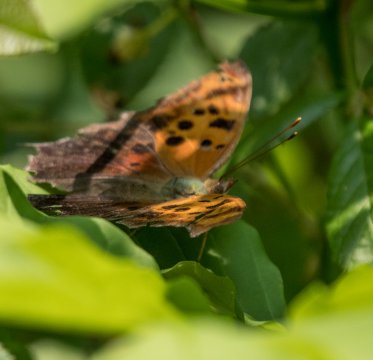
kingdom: Animalia
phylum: Arthropoda
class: Insecta
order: Lepidoptera
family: Nymphalidae
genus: Polygonia
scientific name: Polygonia interrogationis
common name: Question Mark
